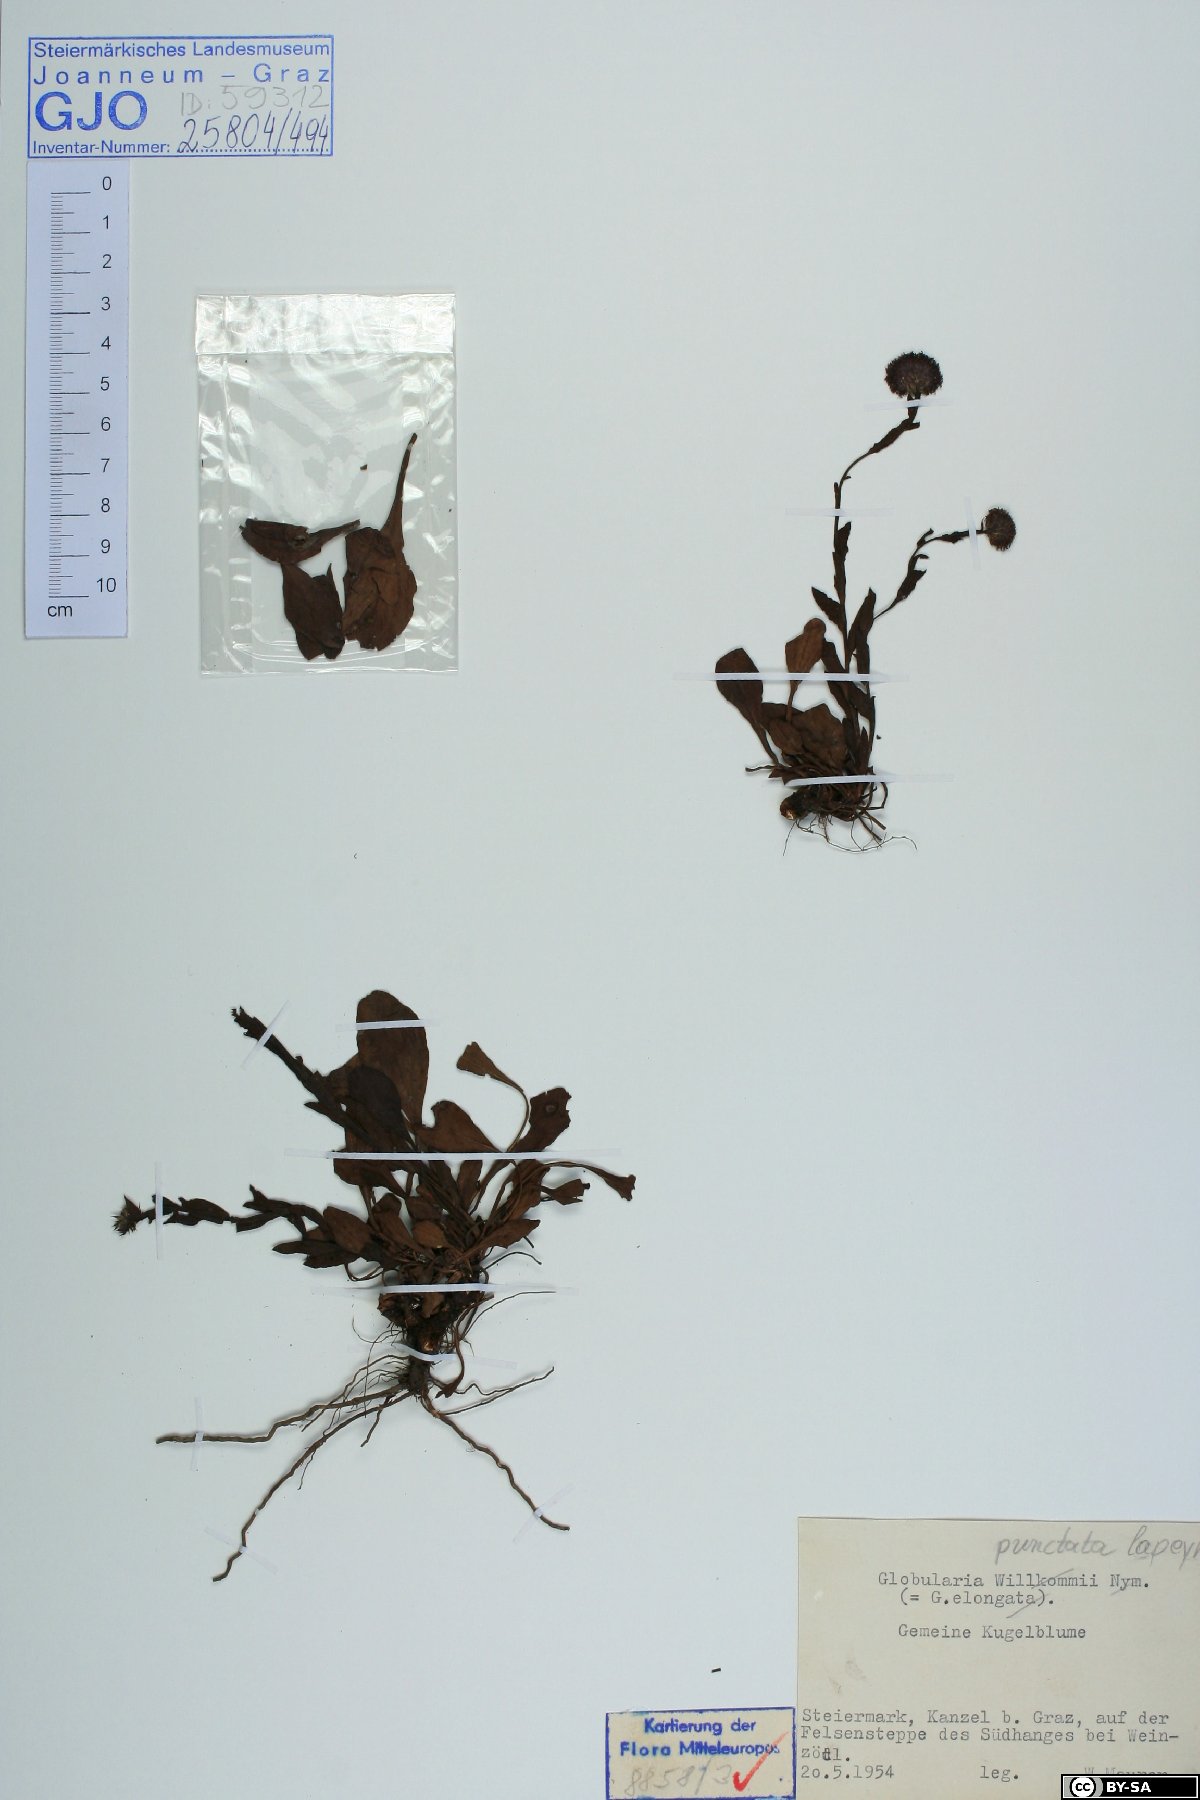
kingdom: Plantae
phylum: Tracheophyta
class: Magnoliopsida
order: Lamiales
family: Plantaginaceae
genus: Globularia
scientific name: Globularia bisnagarica
